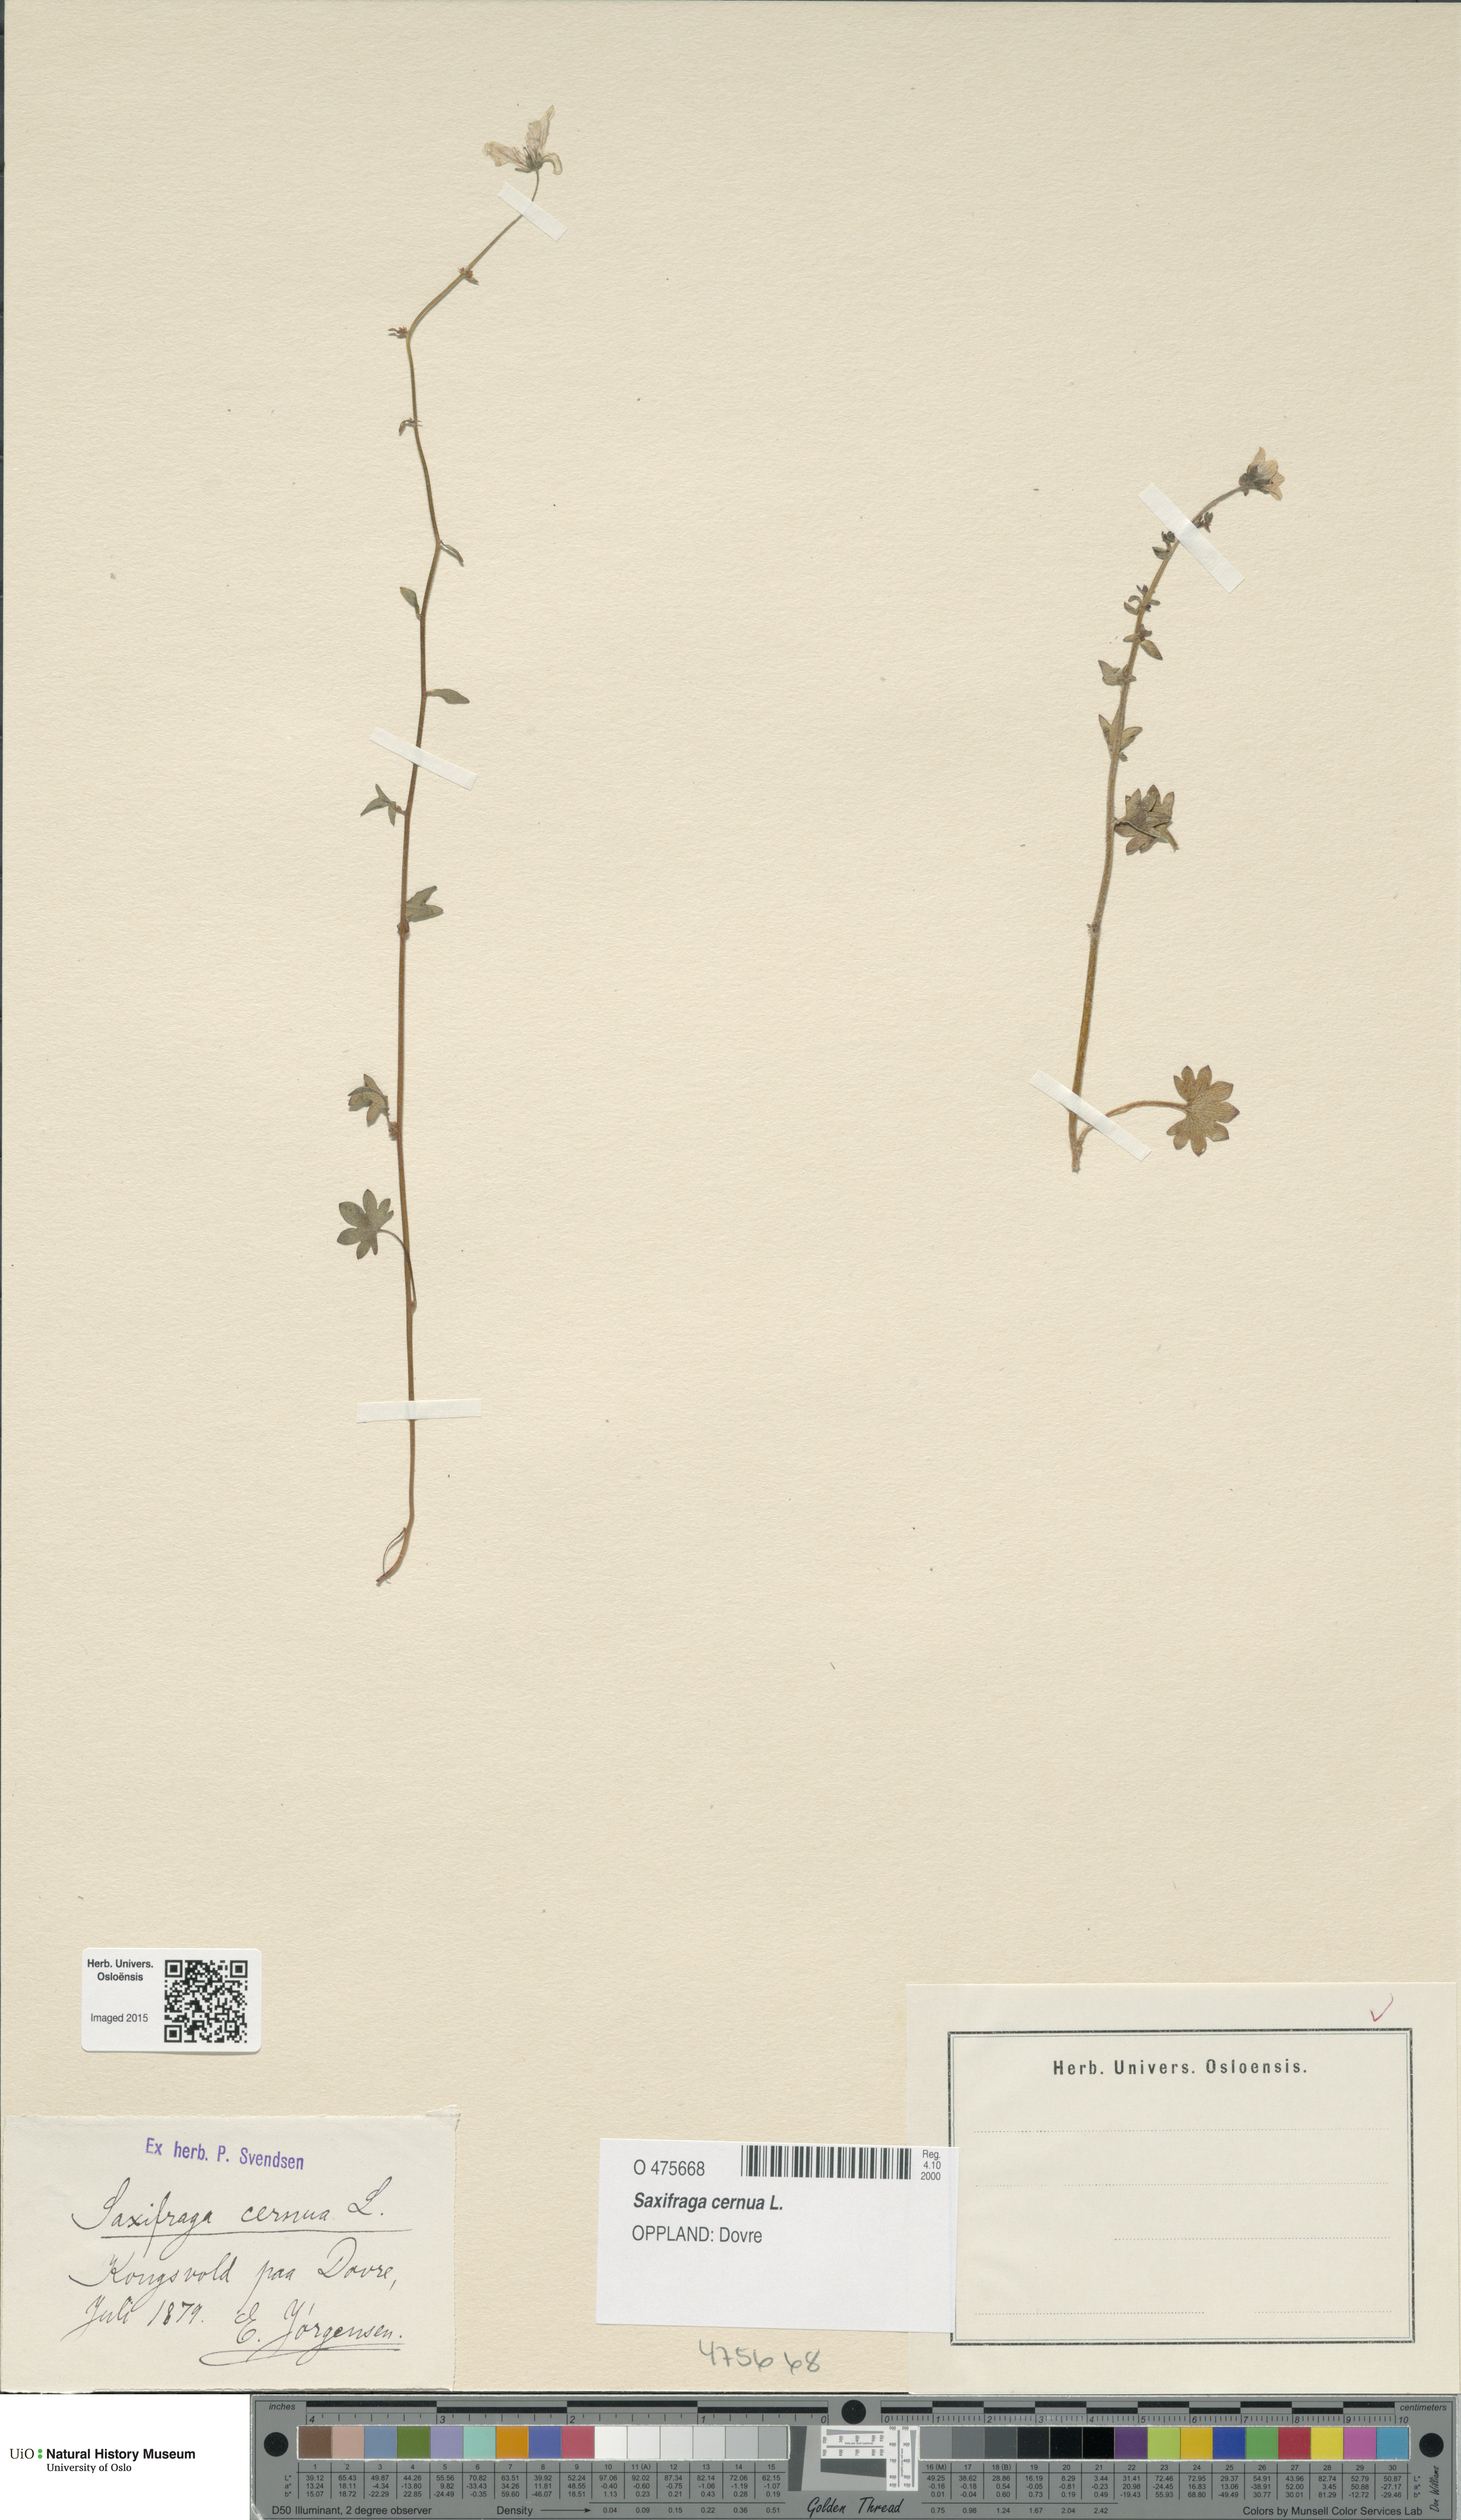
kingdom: Plantae
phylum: Tracheophyta
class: Magnoliopsida
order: Saxifragales
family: Saxifragaceae
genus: Saxifraga
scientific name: Saxifraga cernua
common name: Drooping saxifrage
